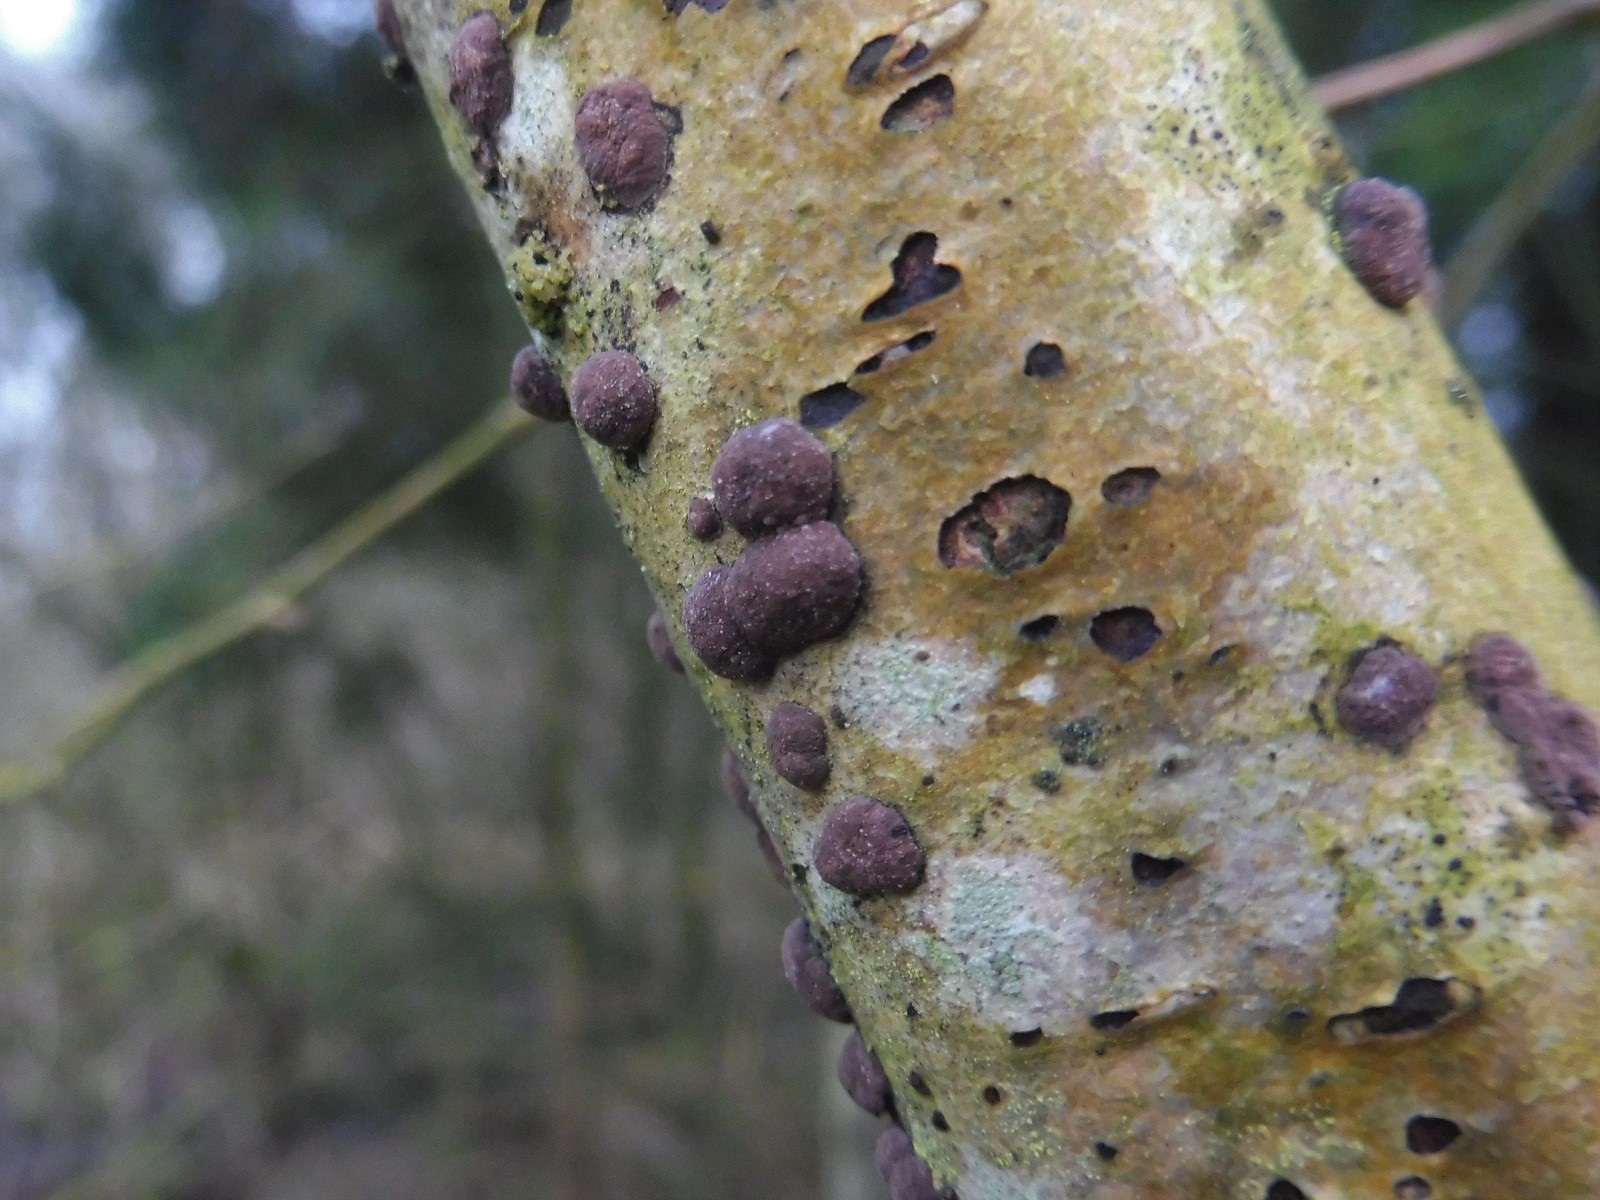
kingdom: Fungi
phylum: Ascomycota
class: Sordariomycetes
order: Xylariales
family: Hypoxylaceae
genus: Hypoxylon
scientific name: Hypoxylon fuscum
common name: kegleformet kulbær
